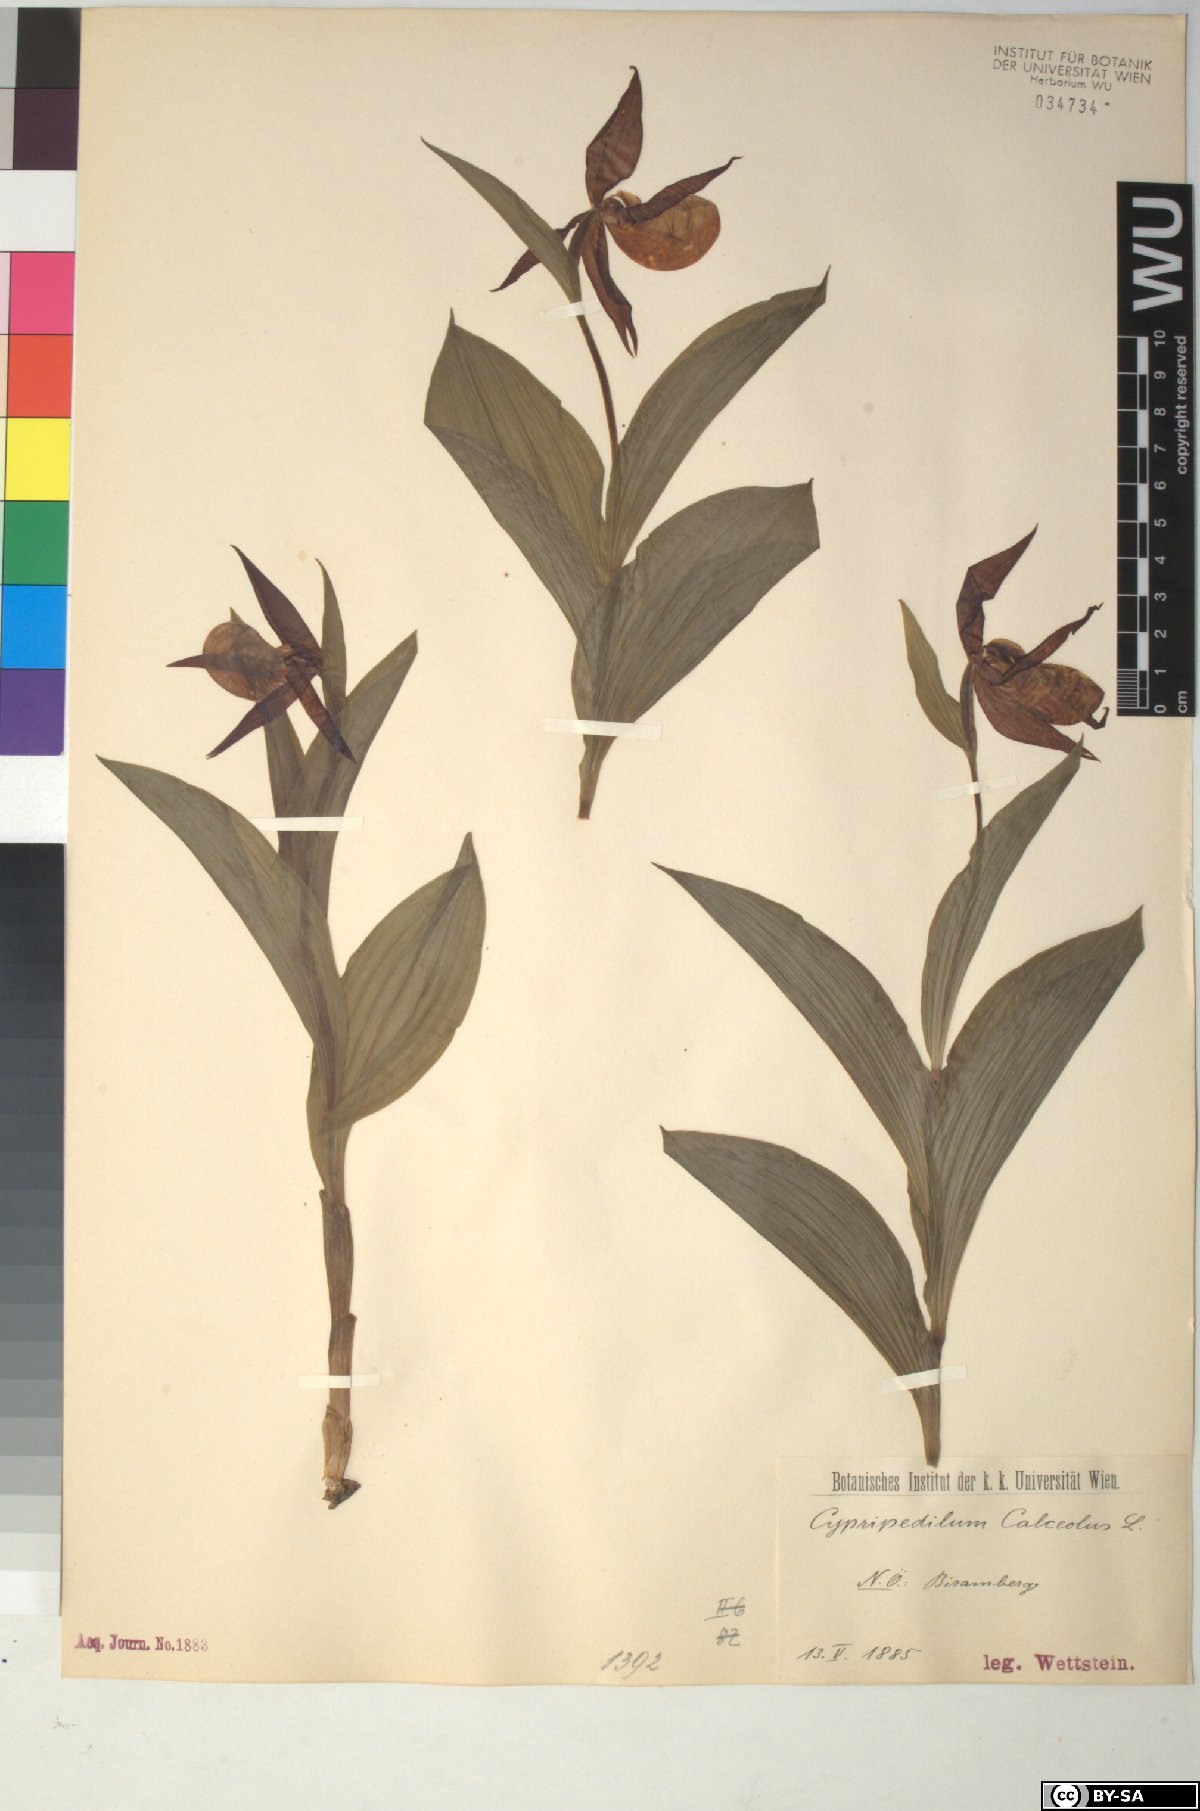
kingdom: Plantae
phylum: Tracheophyta
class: Liliopsida
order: Asparagales
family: Orchidaceae
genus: Cypripedium
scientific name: Cypripedium calceolus
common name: Lady's-slipper
